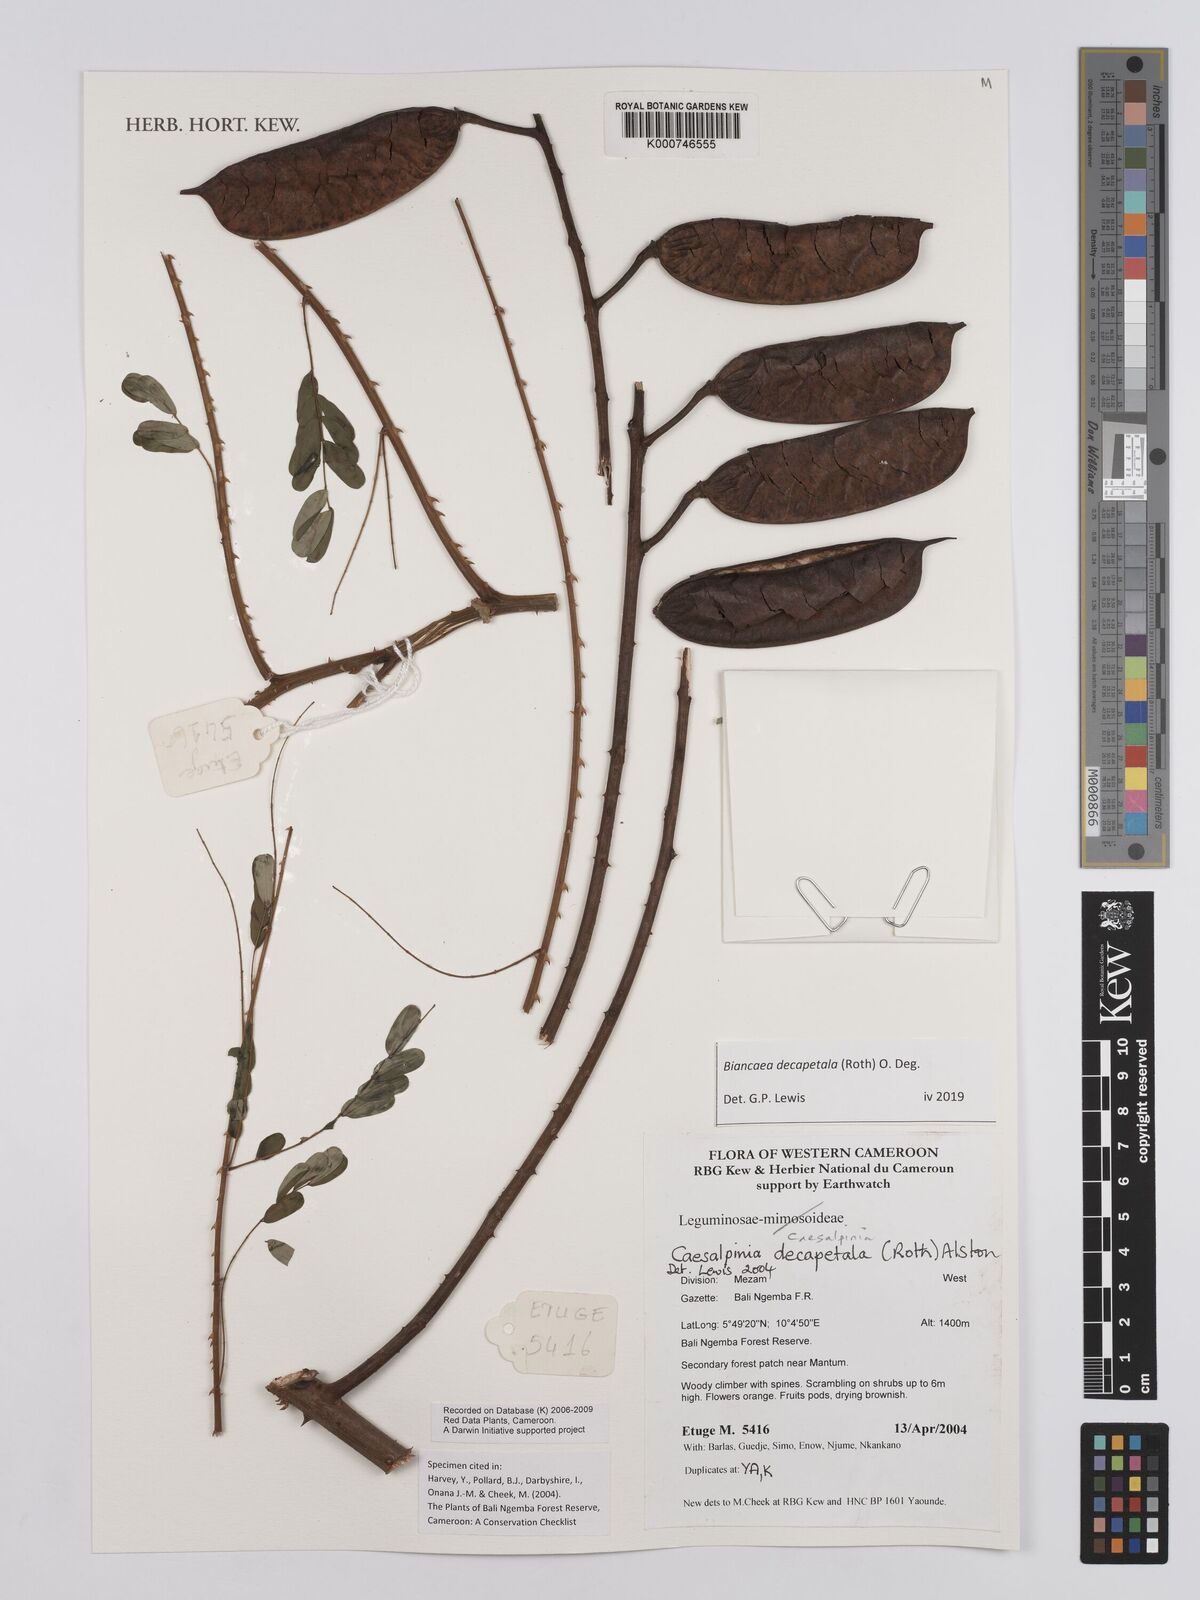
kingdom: Plantae
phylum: Tracheophyta
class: Magnoliopsida
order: Fabales
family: Fabaceae
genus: Biancaea
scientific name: Biancaea decapetala
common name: Cat's claw
